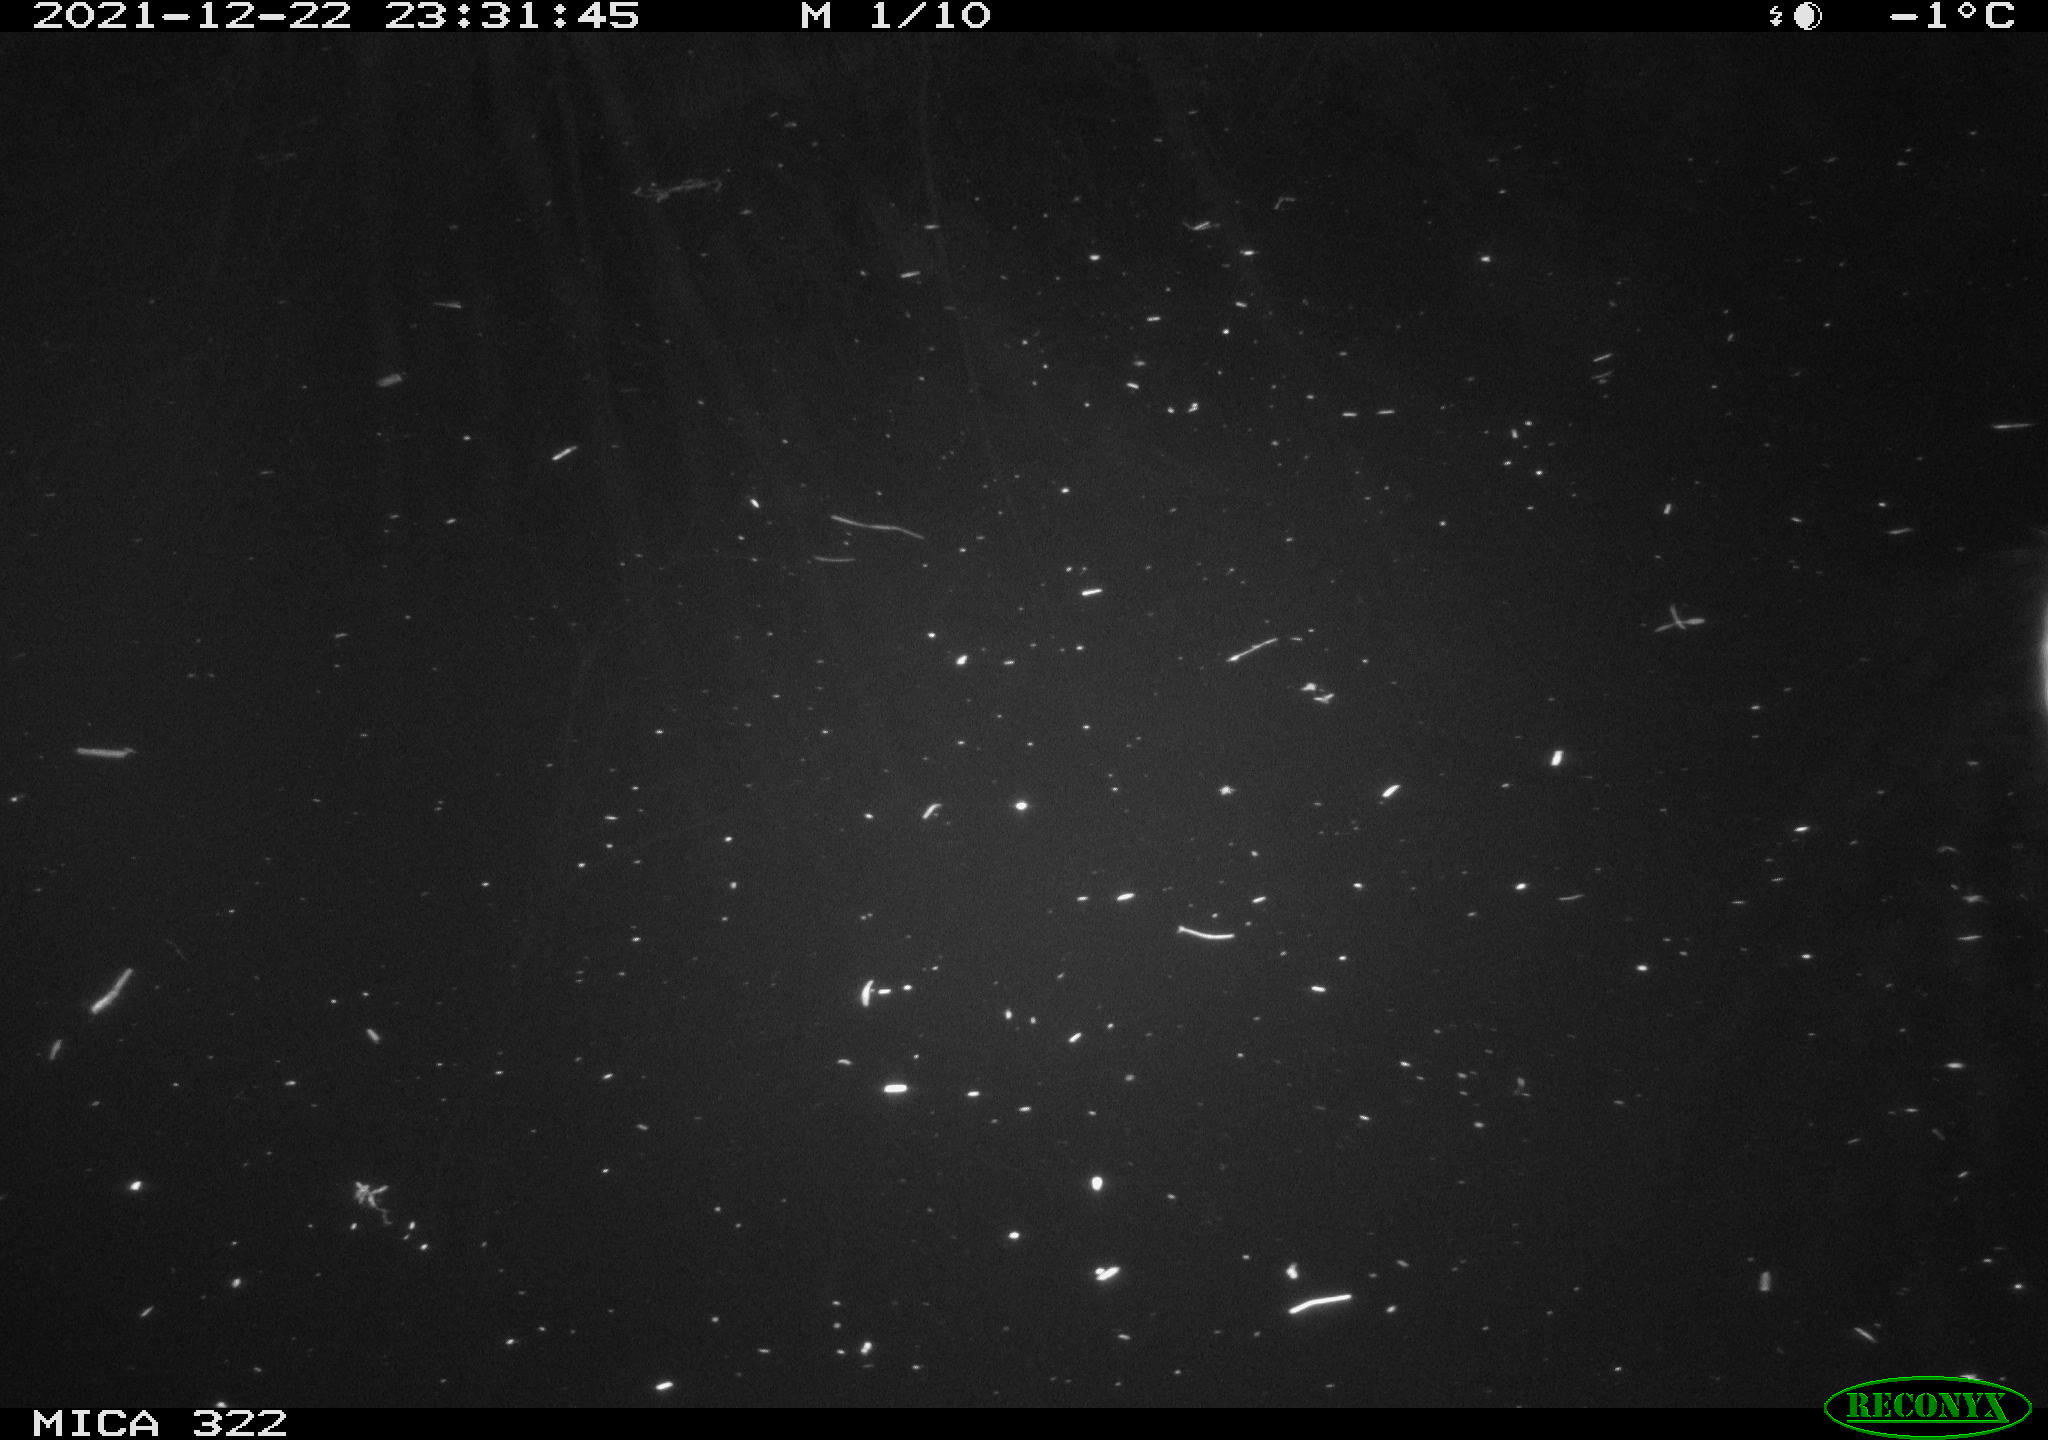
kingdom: Animalia
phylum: Chordata
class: Mammalia
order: Rodentia
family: Muridae
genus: Rattus
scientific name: Rattus norvegicus
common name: Brown rat
